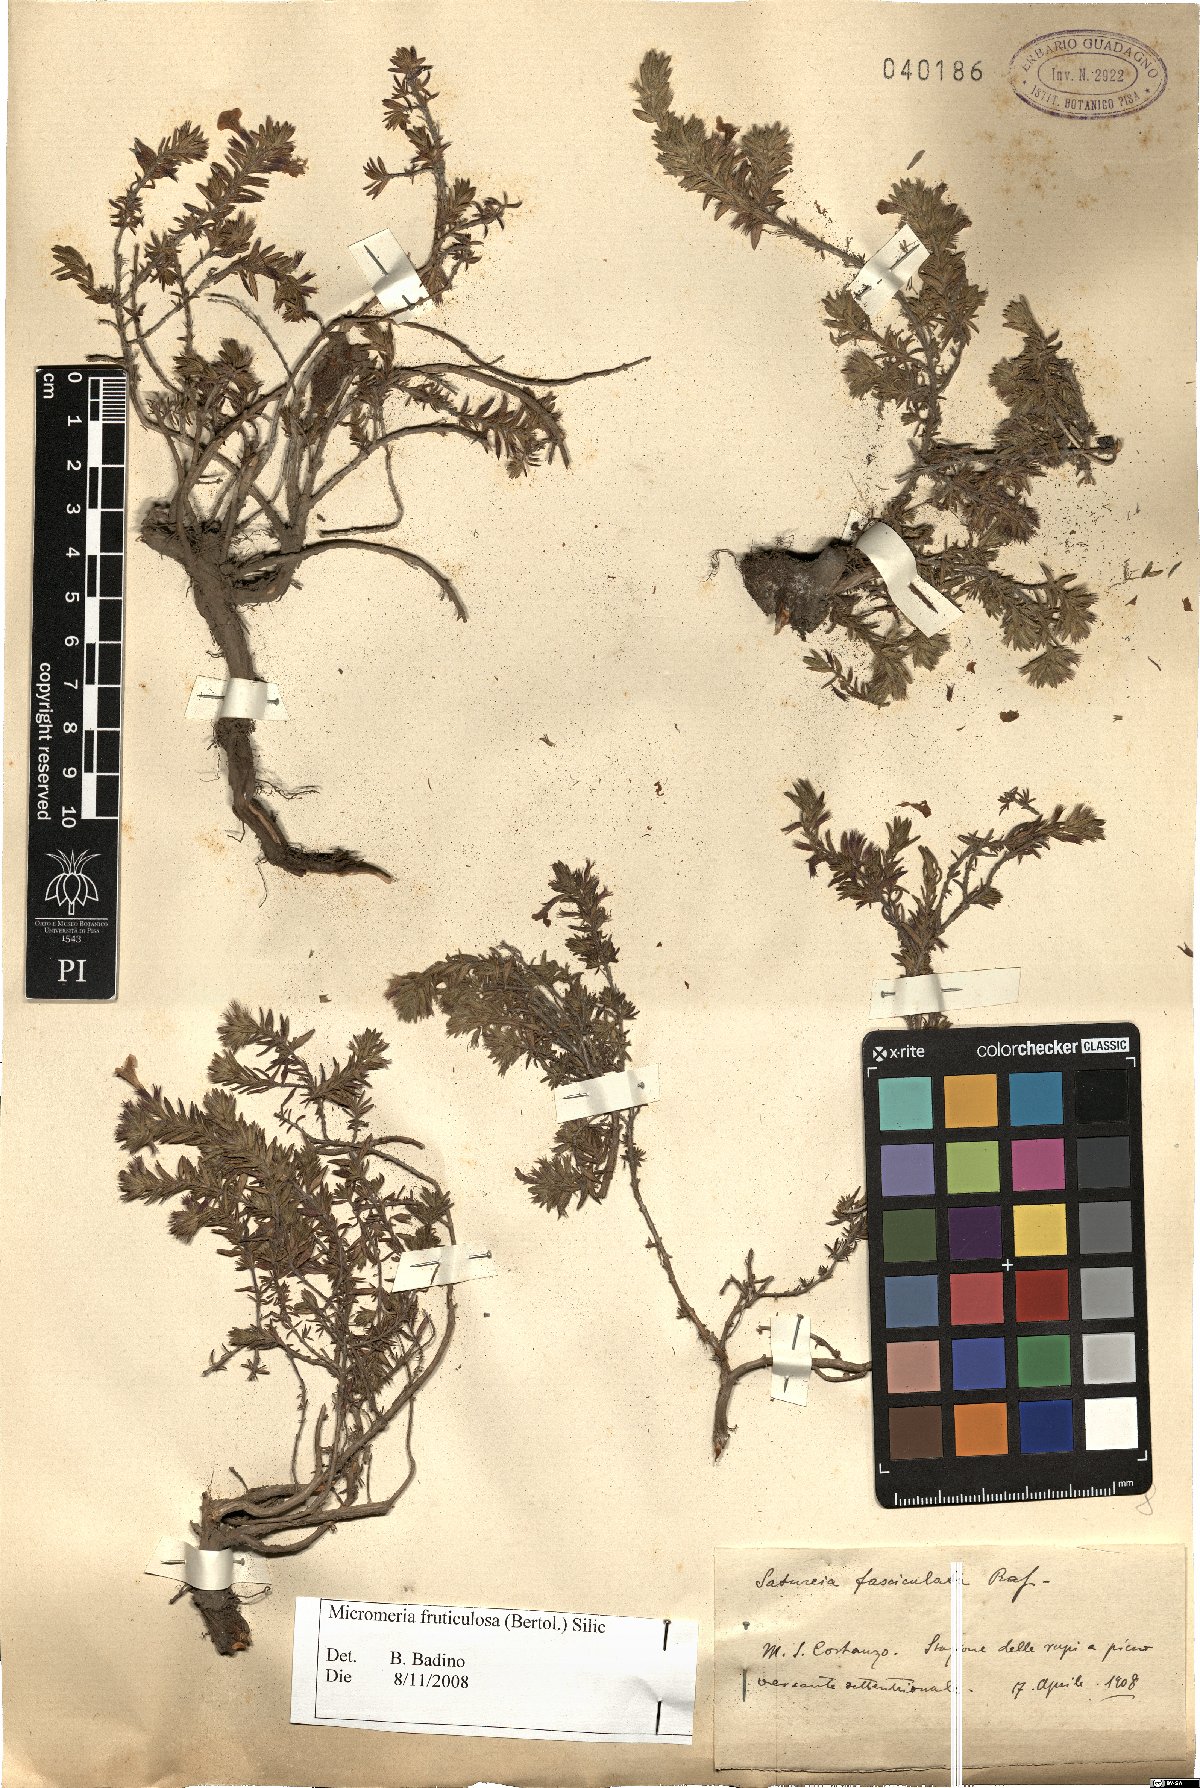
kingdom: Plantae
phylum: Tracheophyta
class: Magnoliopsida
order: Lamiales
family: Lamiaceae
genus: Micromeria
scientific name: Micromeria graeca
